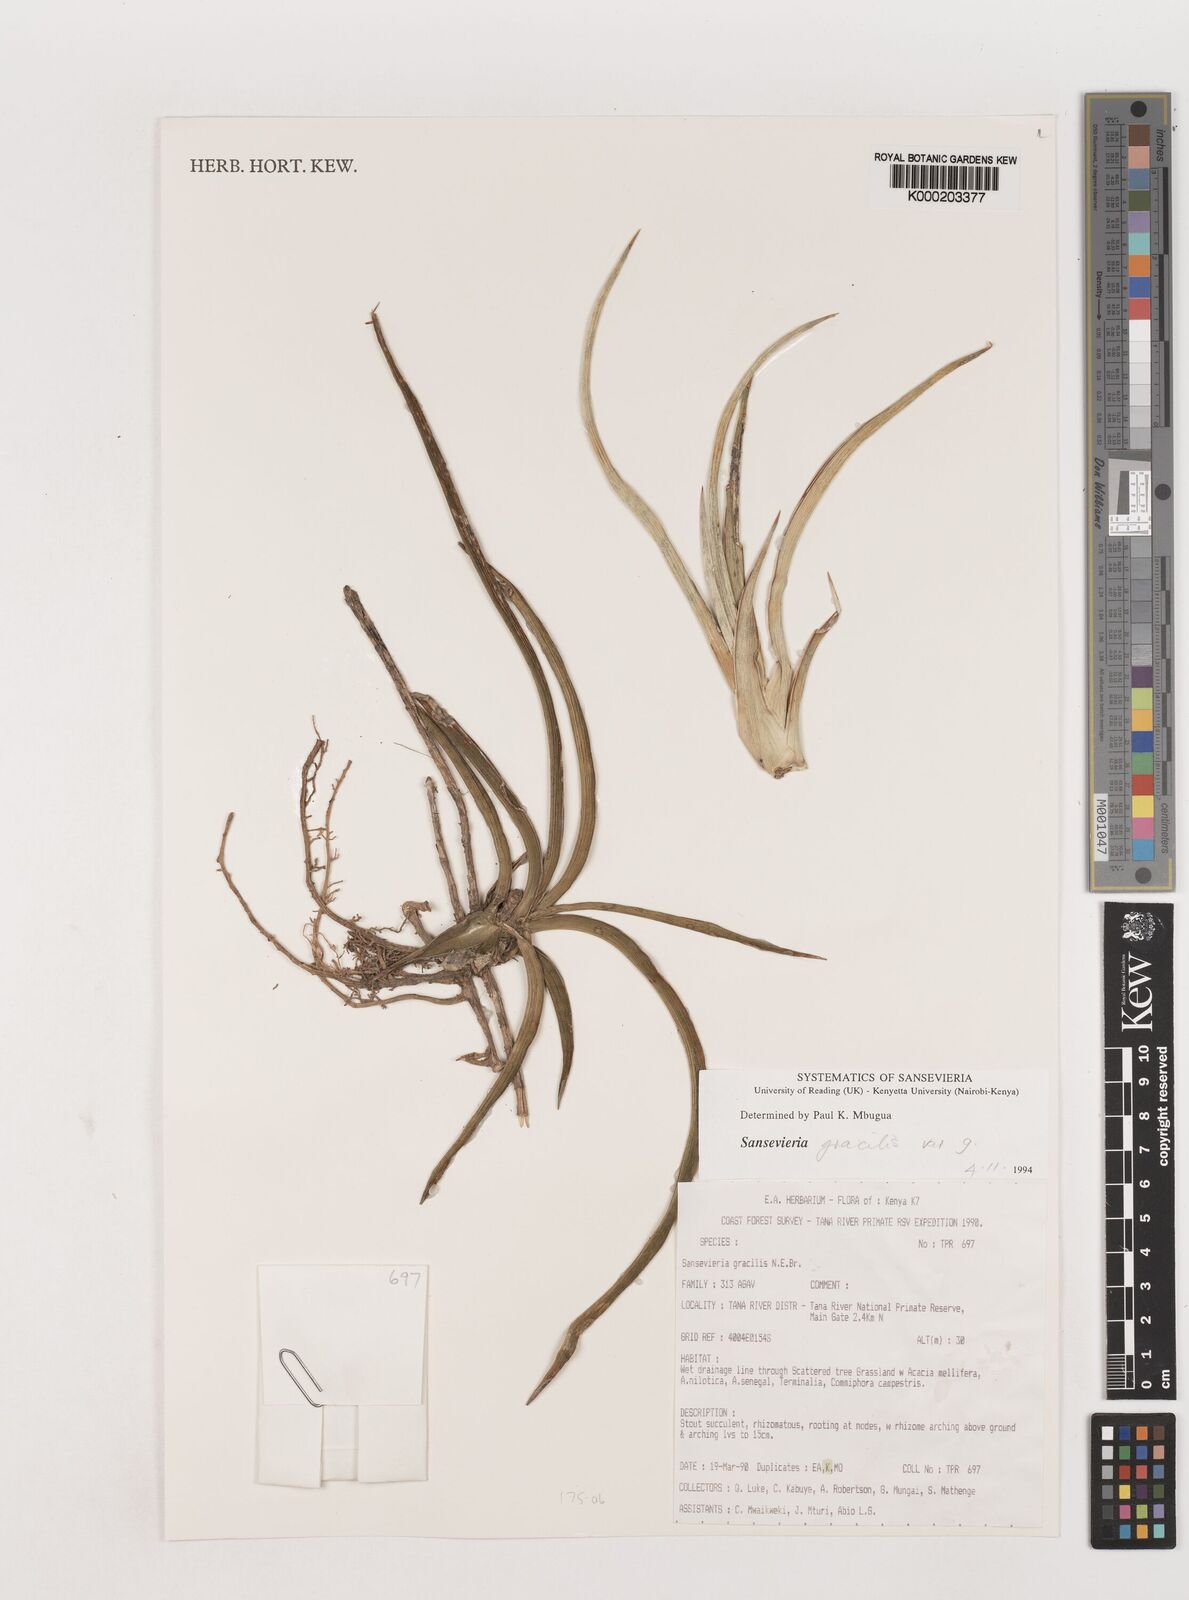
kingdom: Plantae
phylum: Tracheophyta
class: Liliopsida
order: Asparagales
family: Asparagaceae
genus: Dracaena
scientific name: Dracaena serpenta
